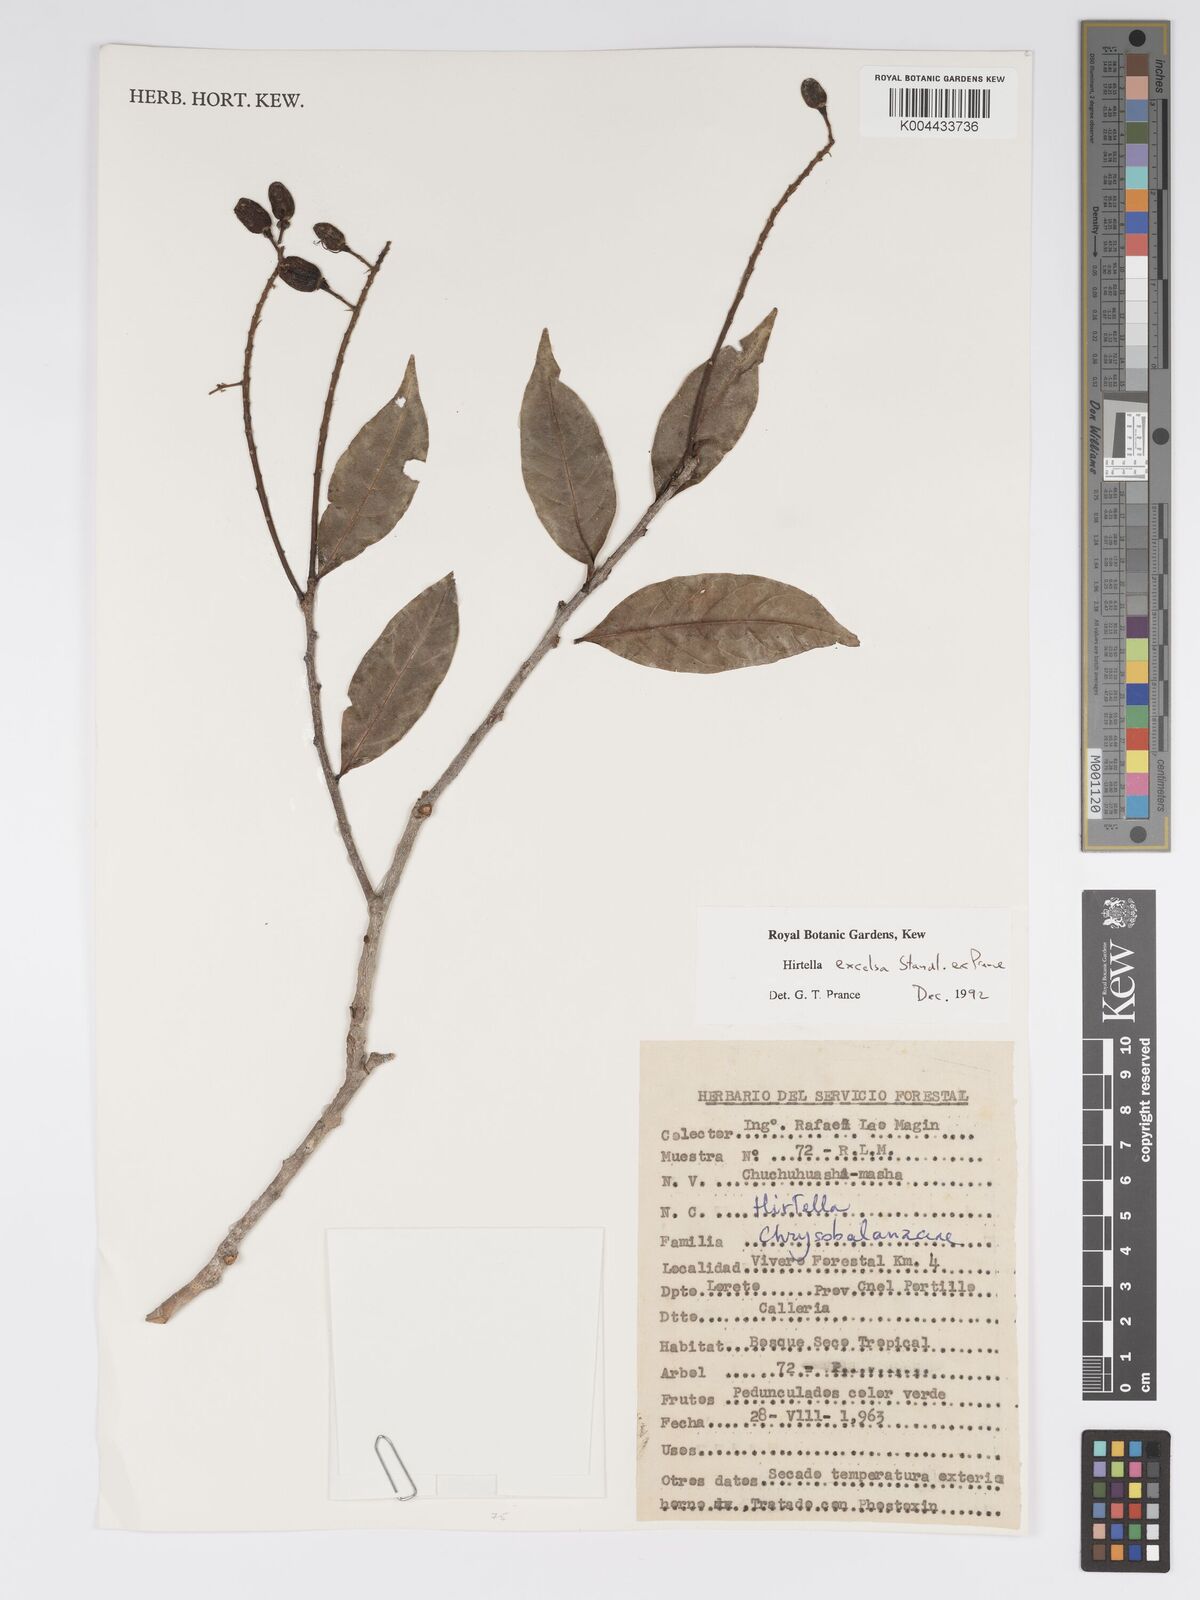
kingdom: Plantae
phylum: Tracheophyta
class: Magnoliopsida
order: Malpighiales
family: Chrysobalanaceae
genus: Hirtella
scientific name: Hirtella excelsa
